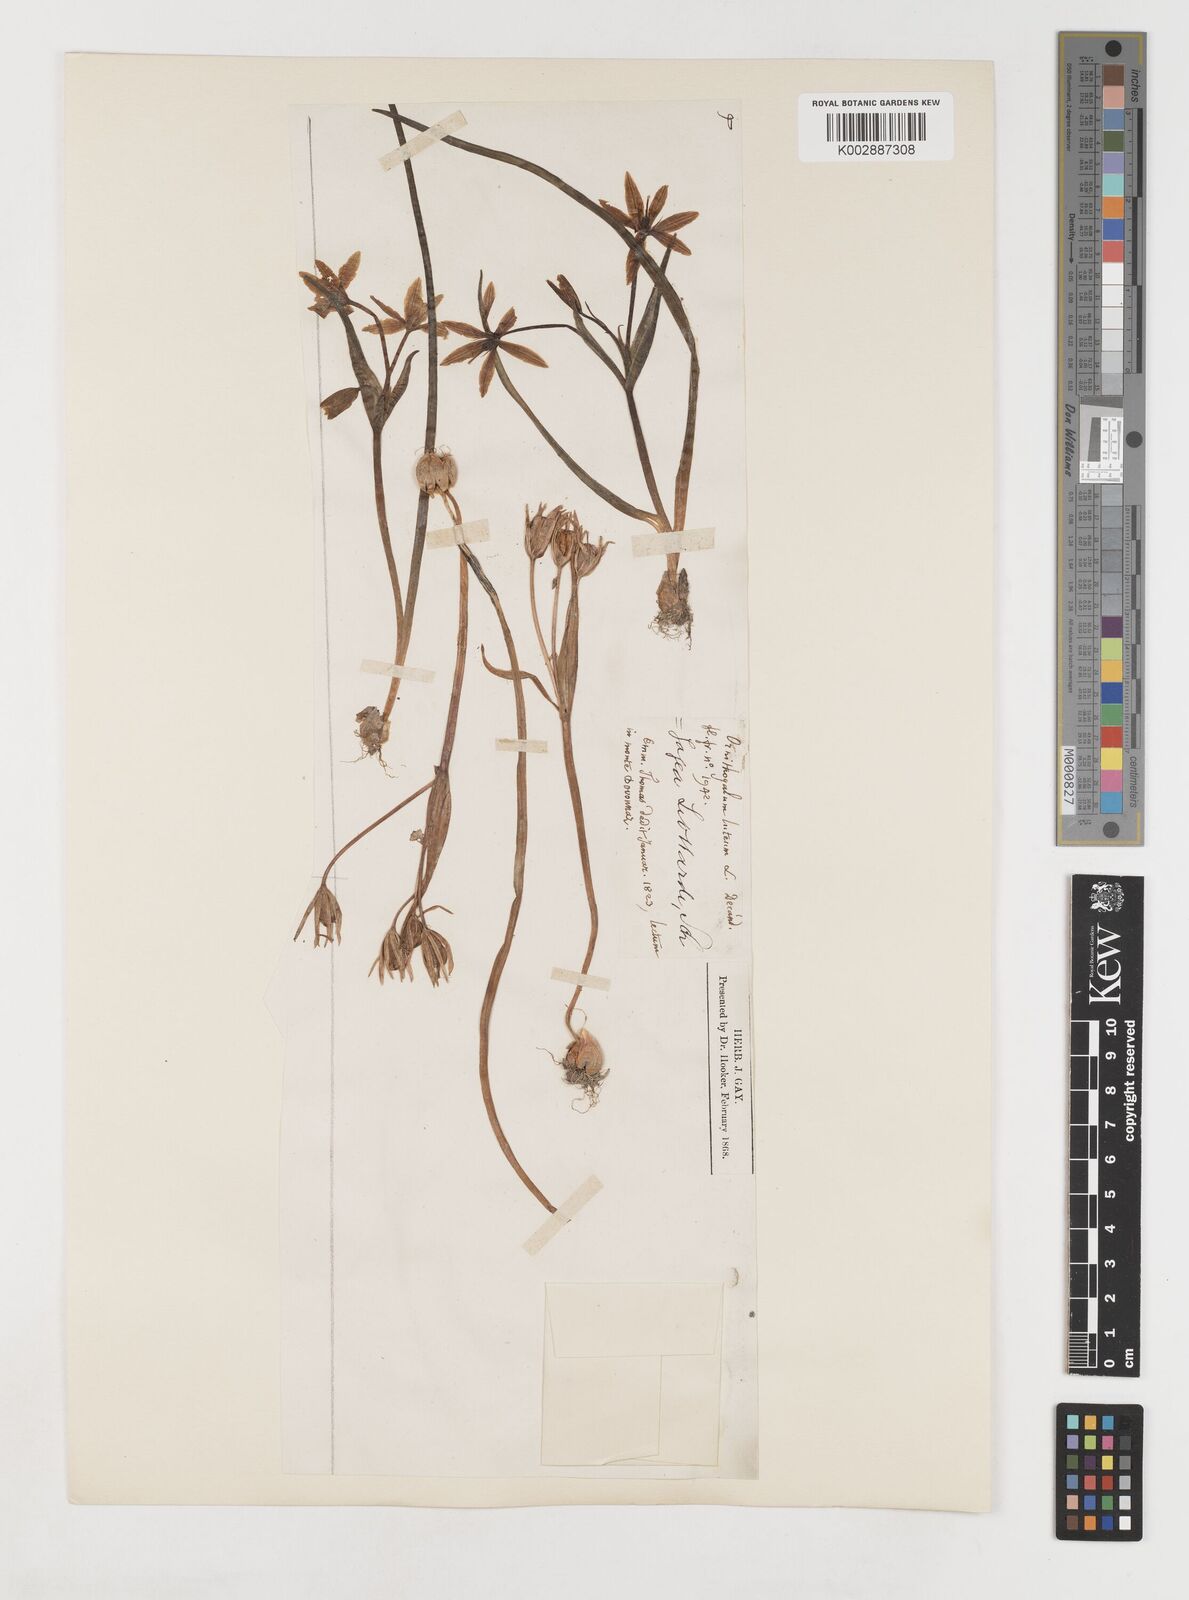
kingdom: Plantae
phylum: Tracheophyta
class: Liliopsida
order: Liliales
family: Liliaceae
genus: Gagea
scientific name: Gagea bohemica
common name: Early star-of-bethlehem
